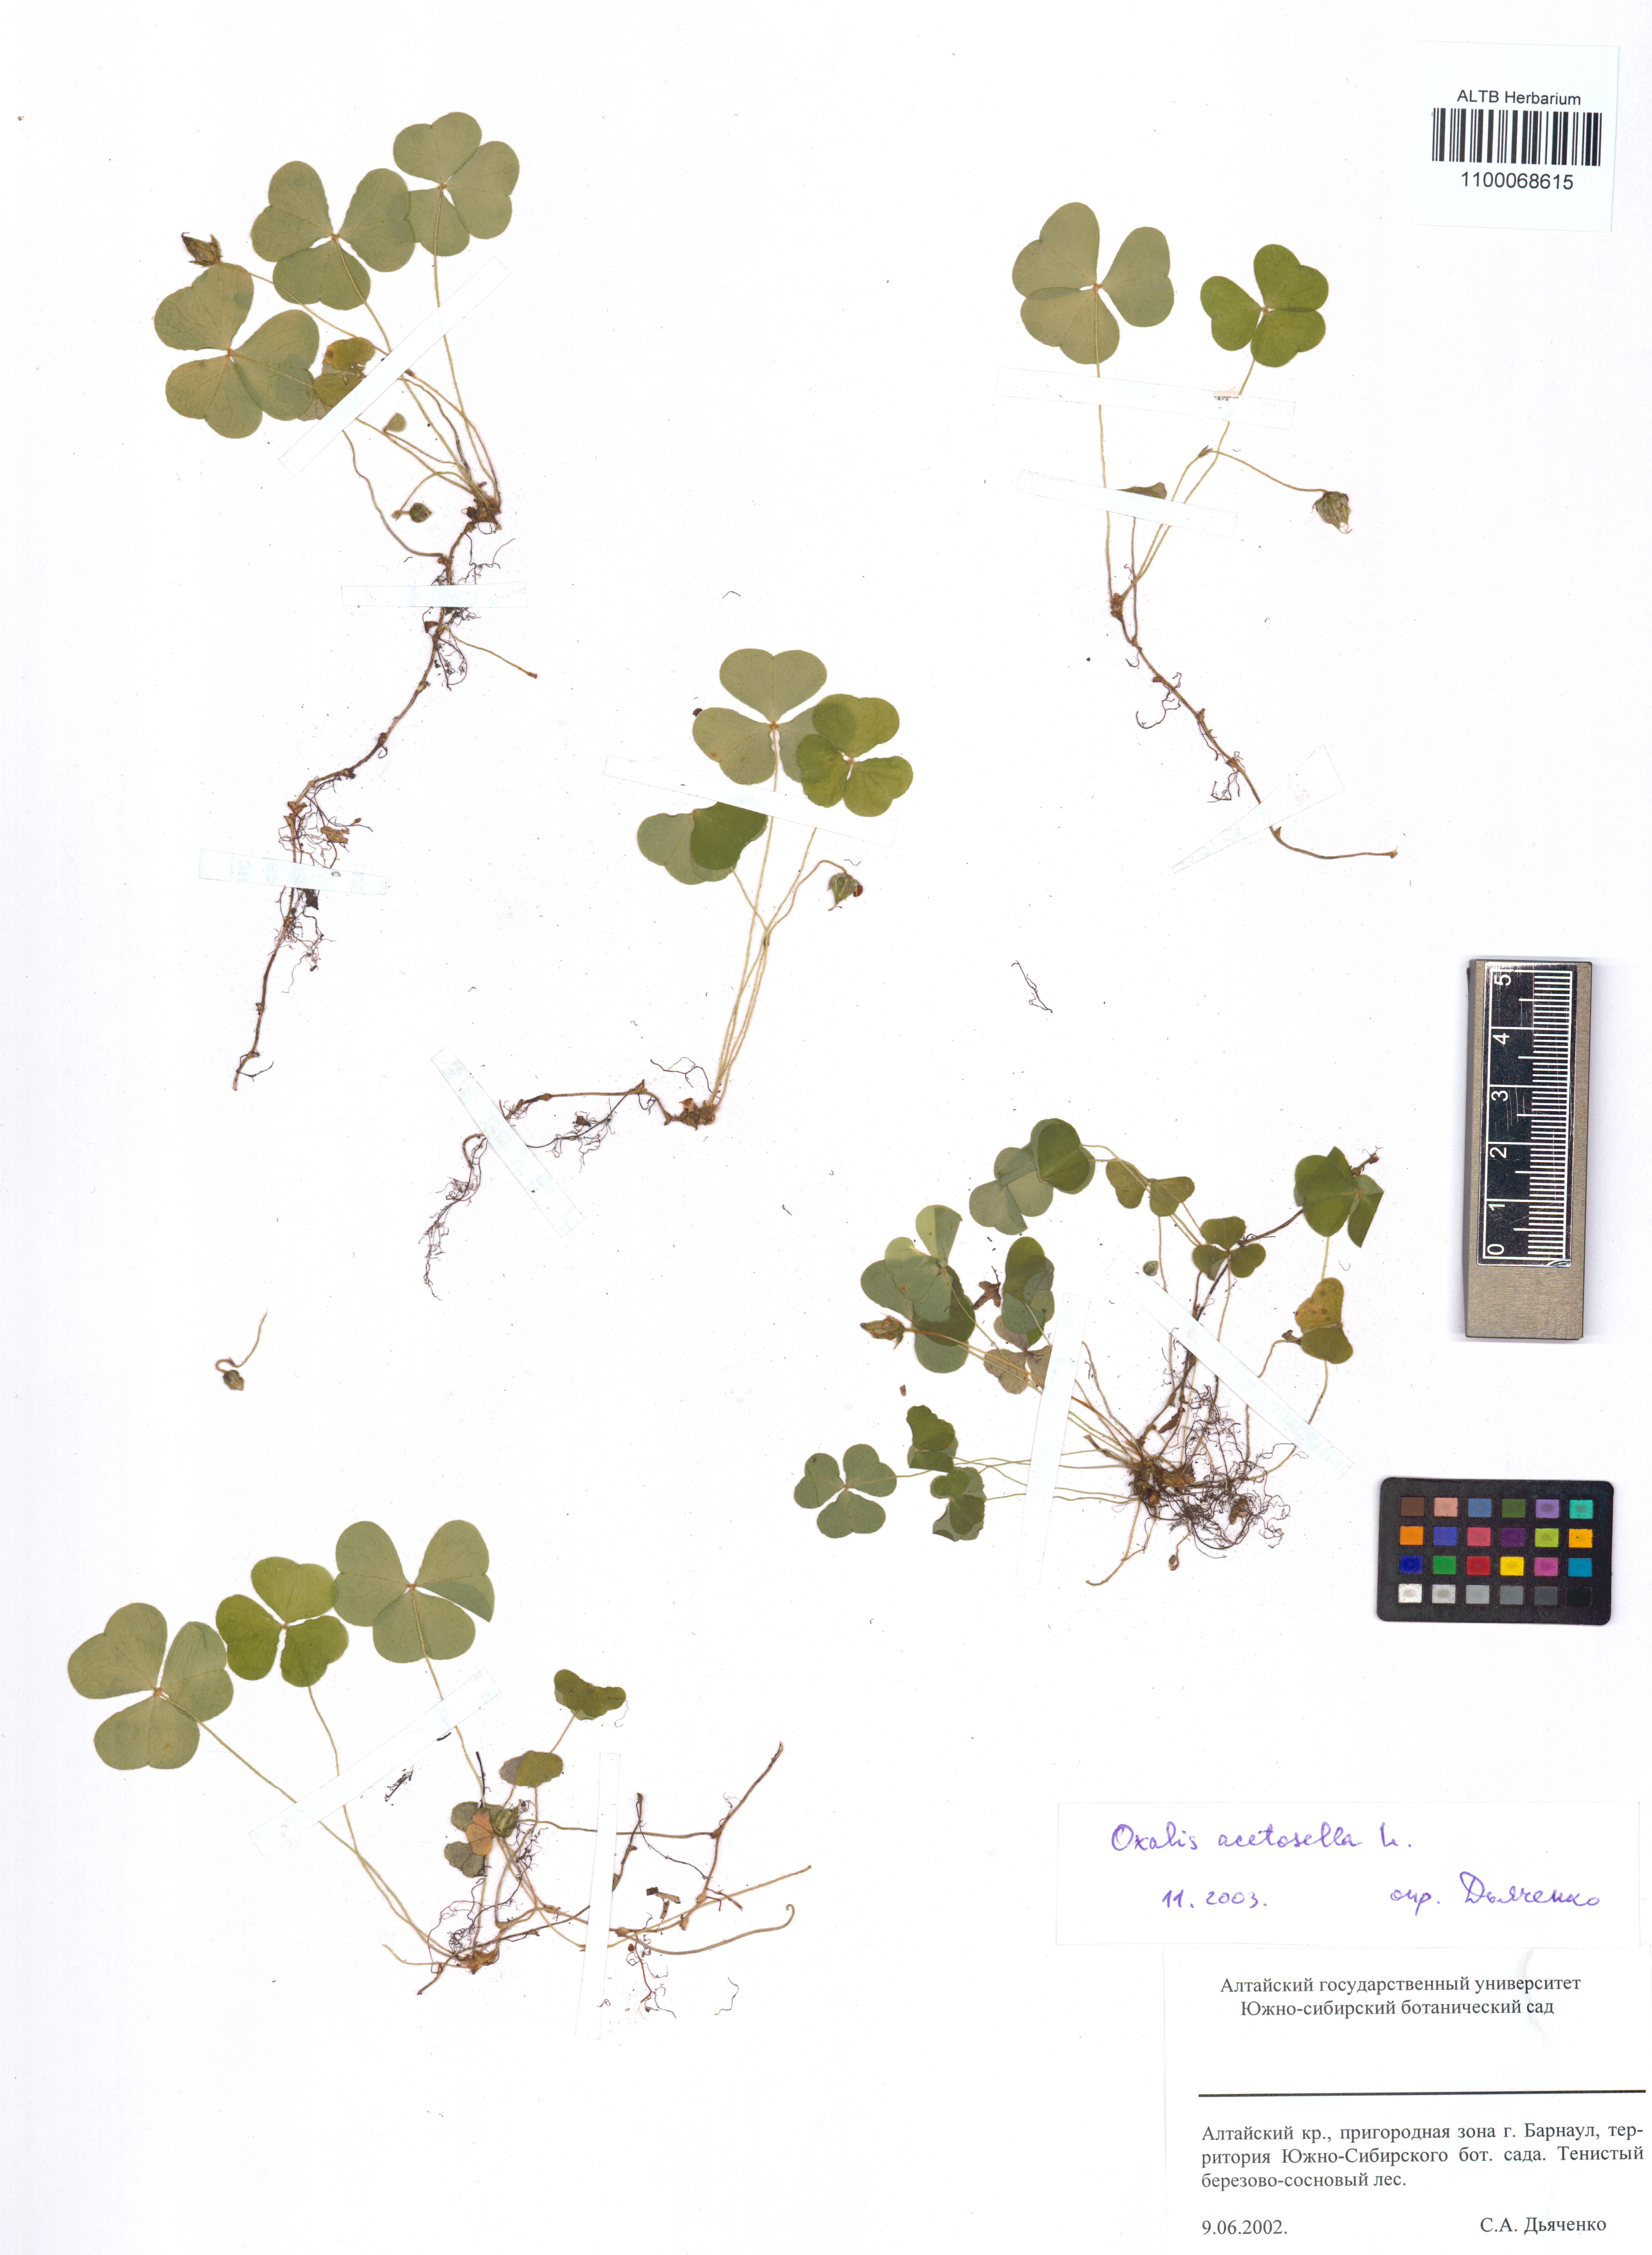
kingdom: Plantae
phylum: Tracheophyta
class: Magnoliopsida
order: Oxalidales
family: Oxalidaceae
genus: Oxalis
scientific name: Oxalis acetosella
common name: Wood-sorrel
